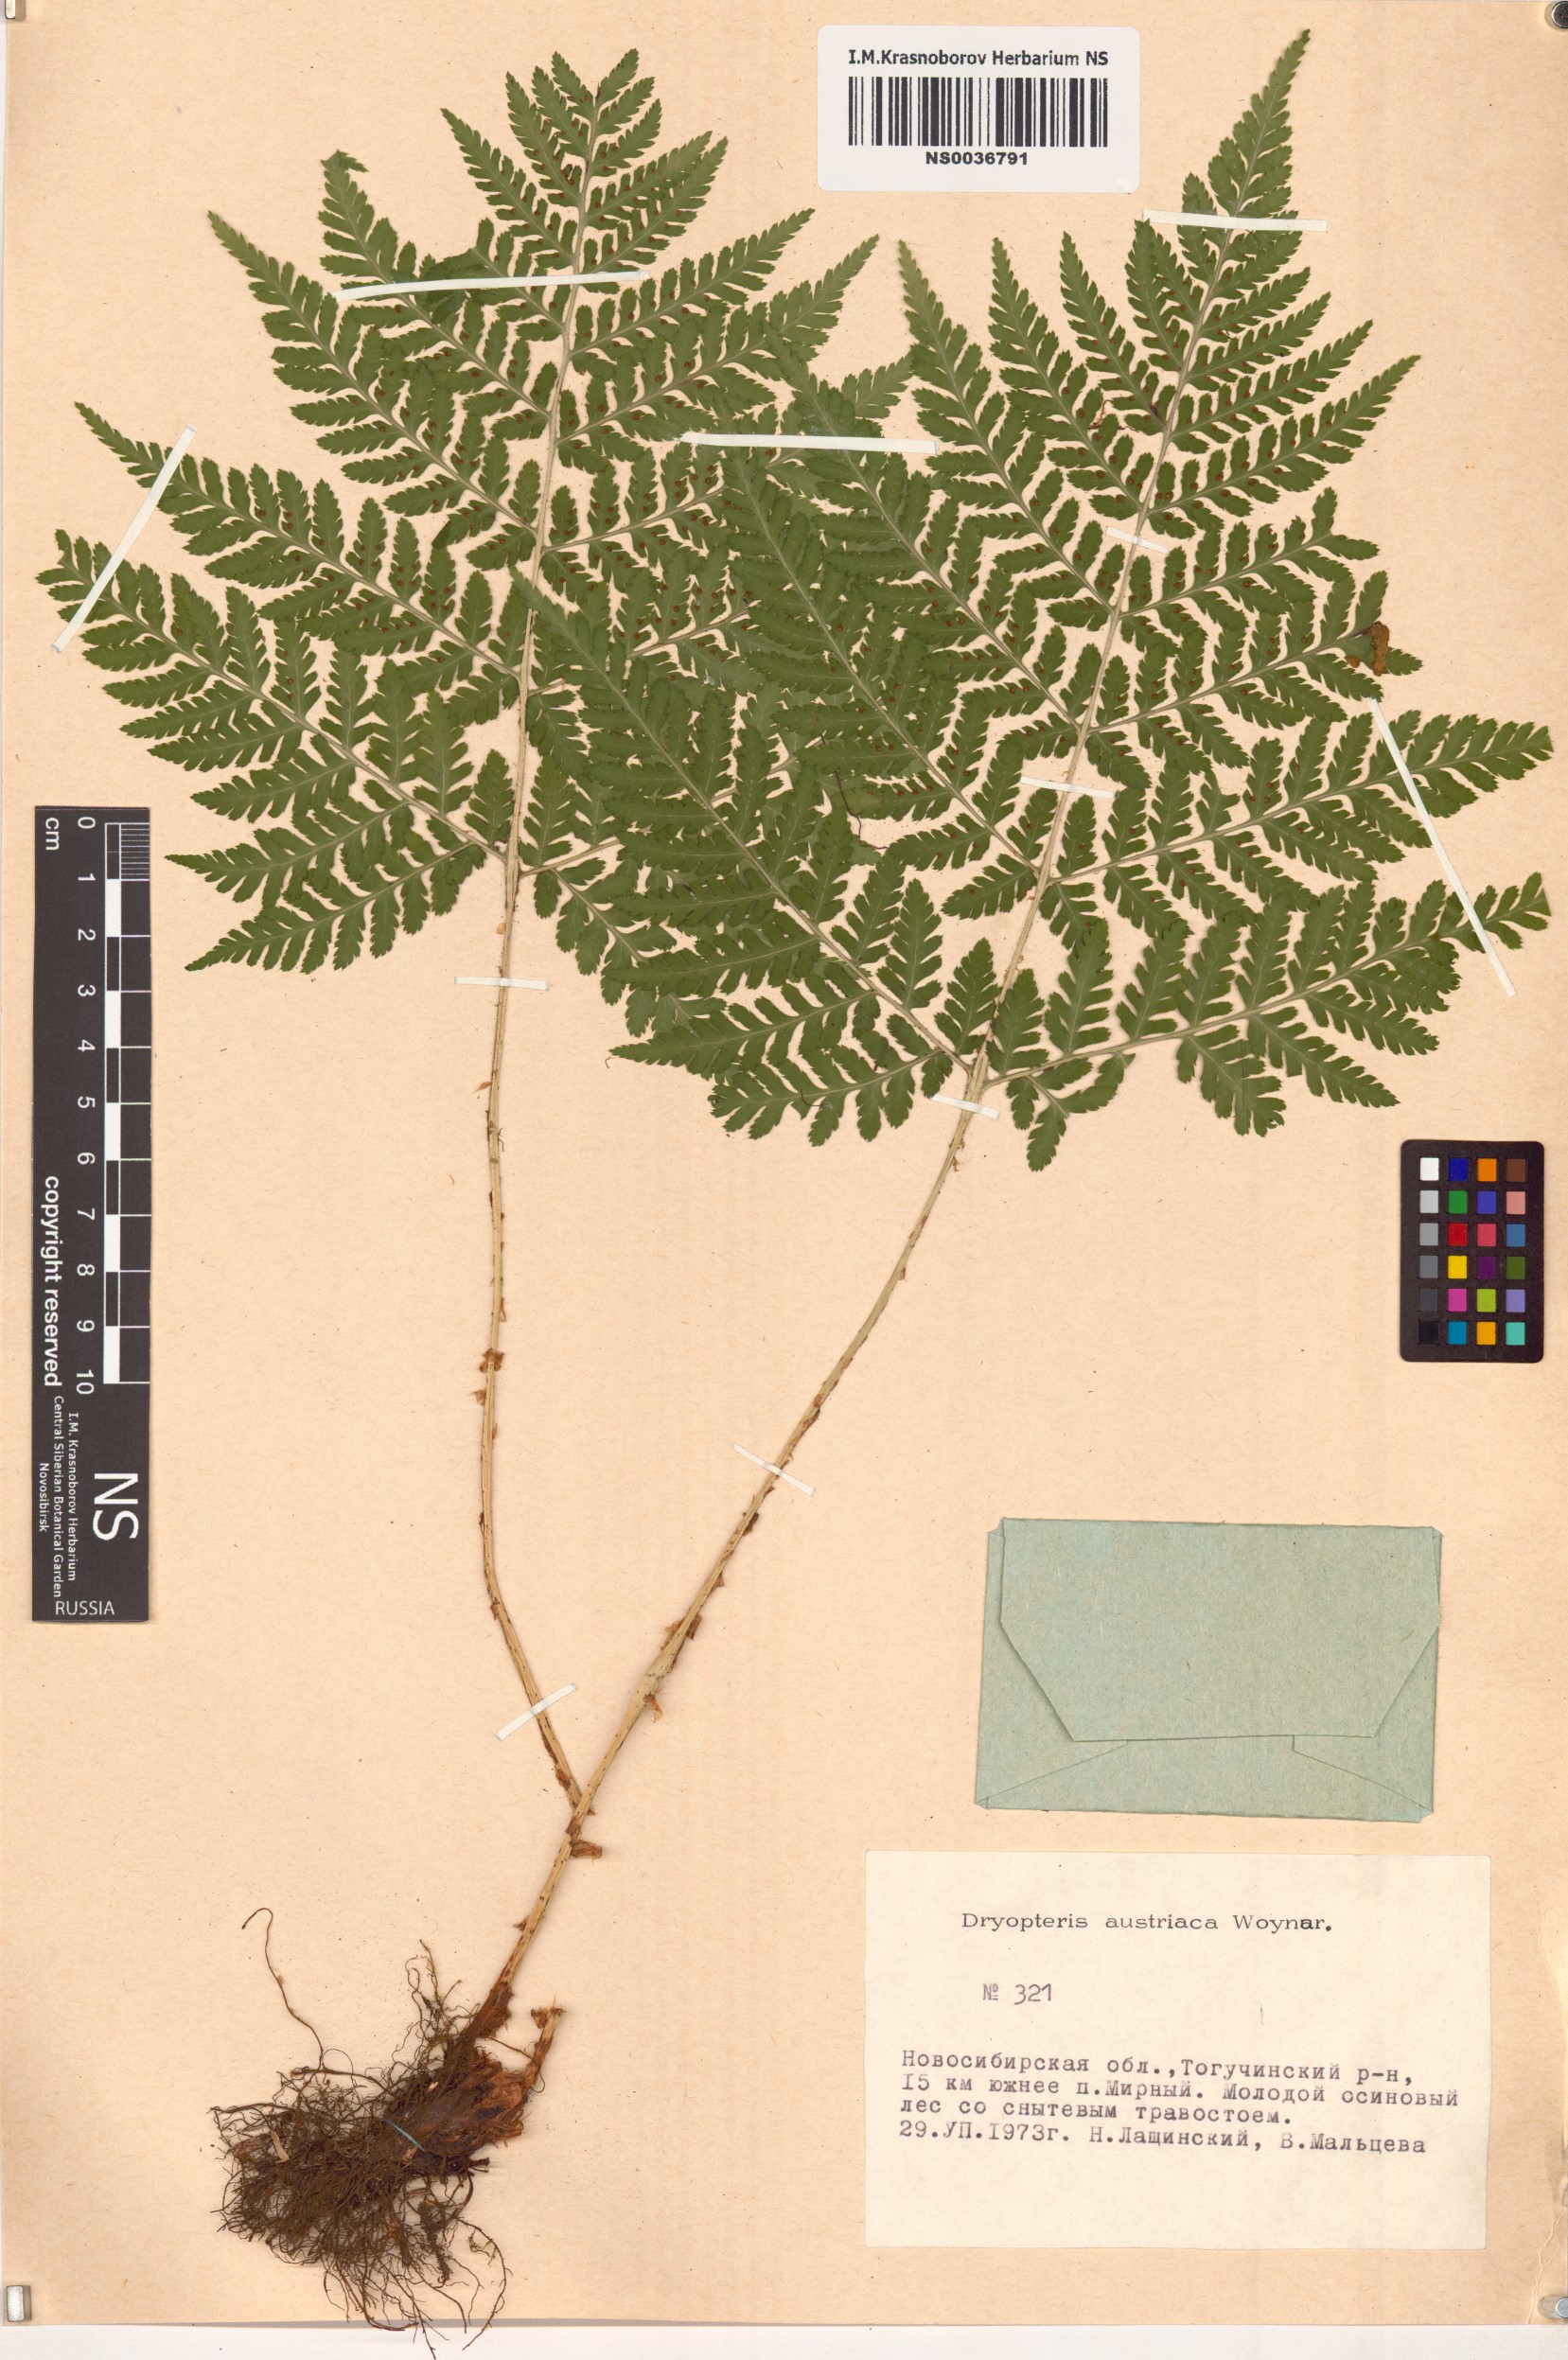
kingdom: Plantae
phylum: Tracheophyta
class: Polypodiopsida
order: Polypodiales
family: Dryopteridaceae
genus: Dryopteris
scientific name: Dryopteris dilatata
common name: Broad buckler-fern
